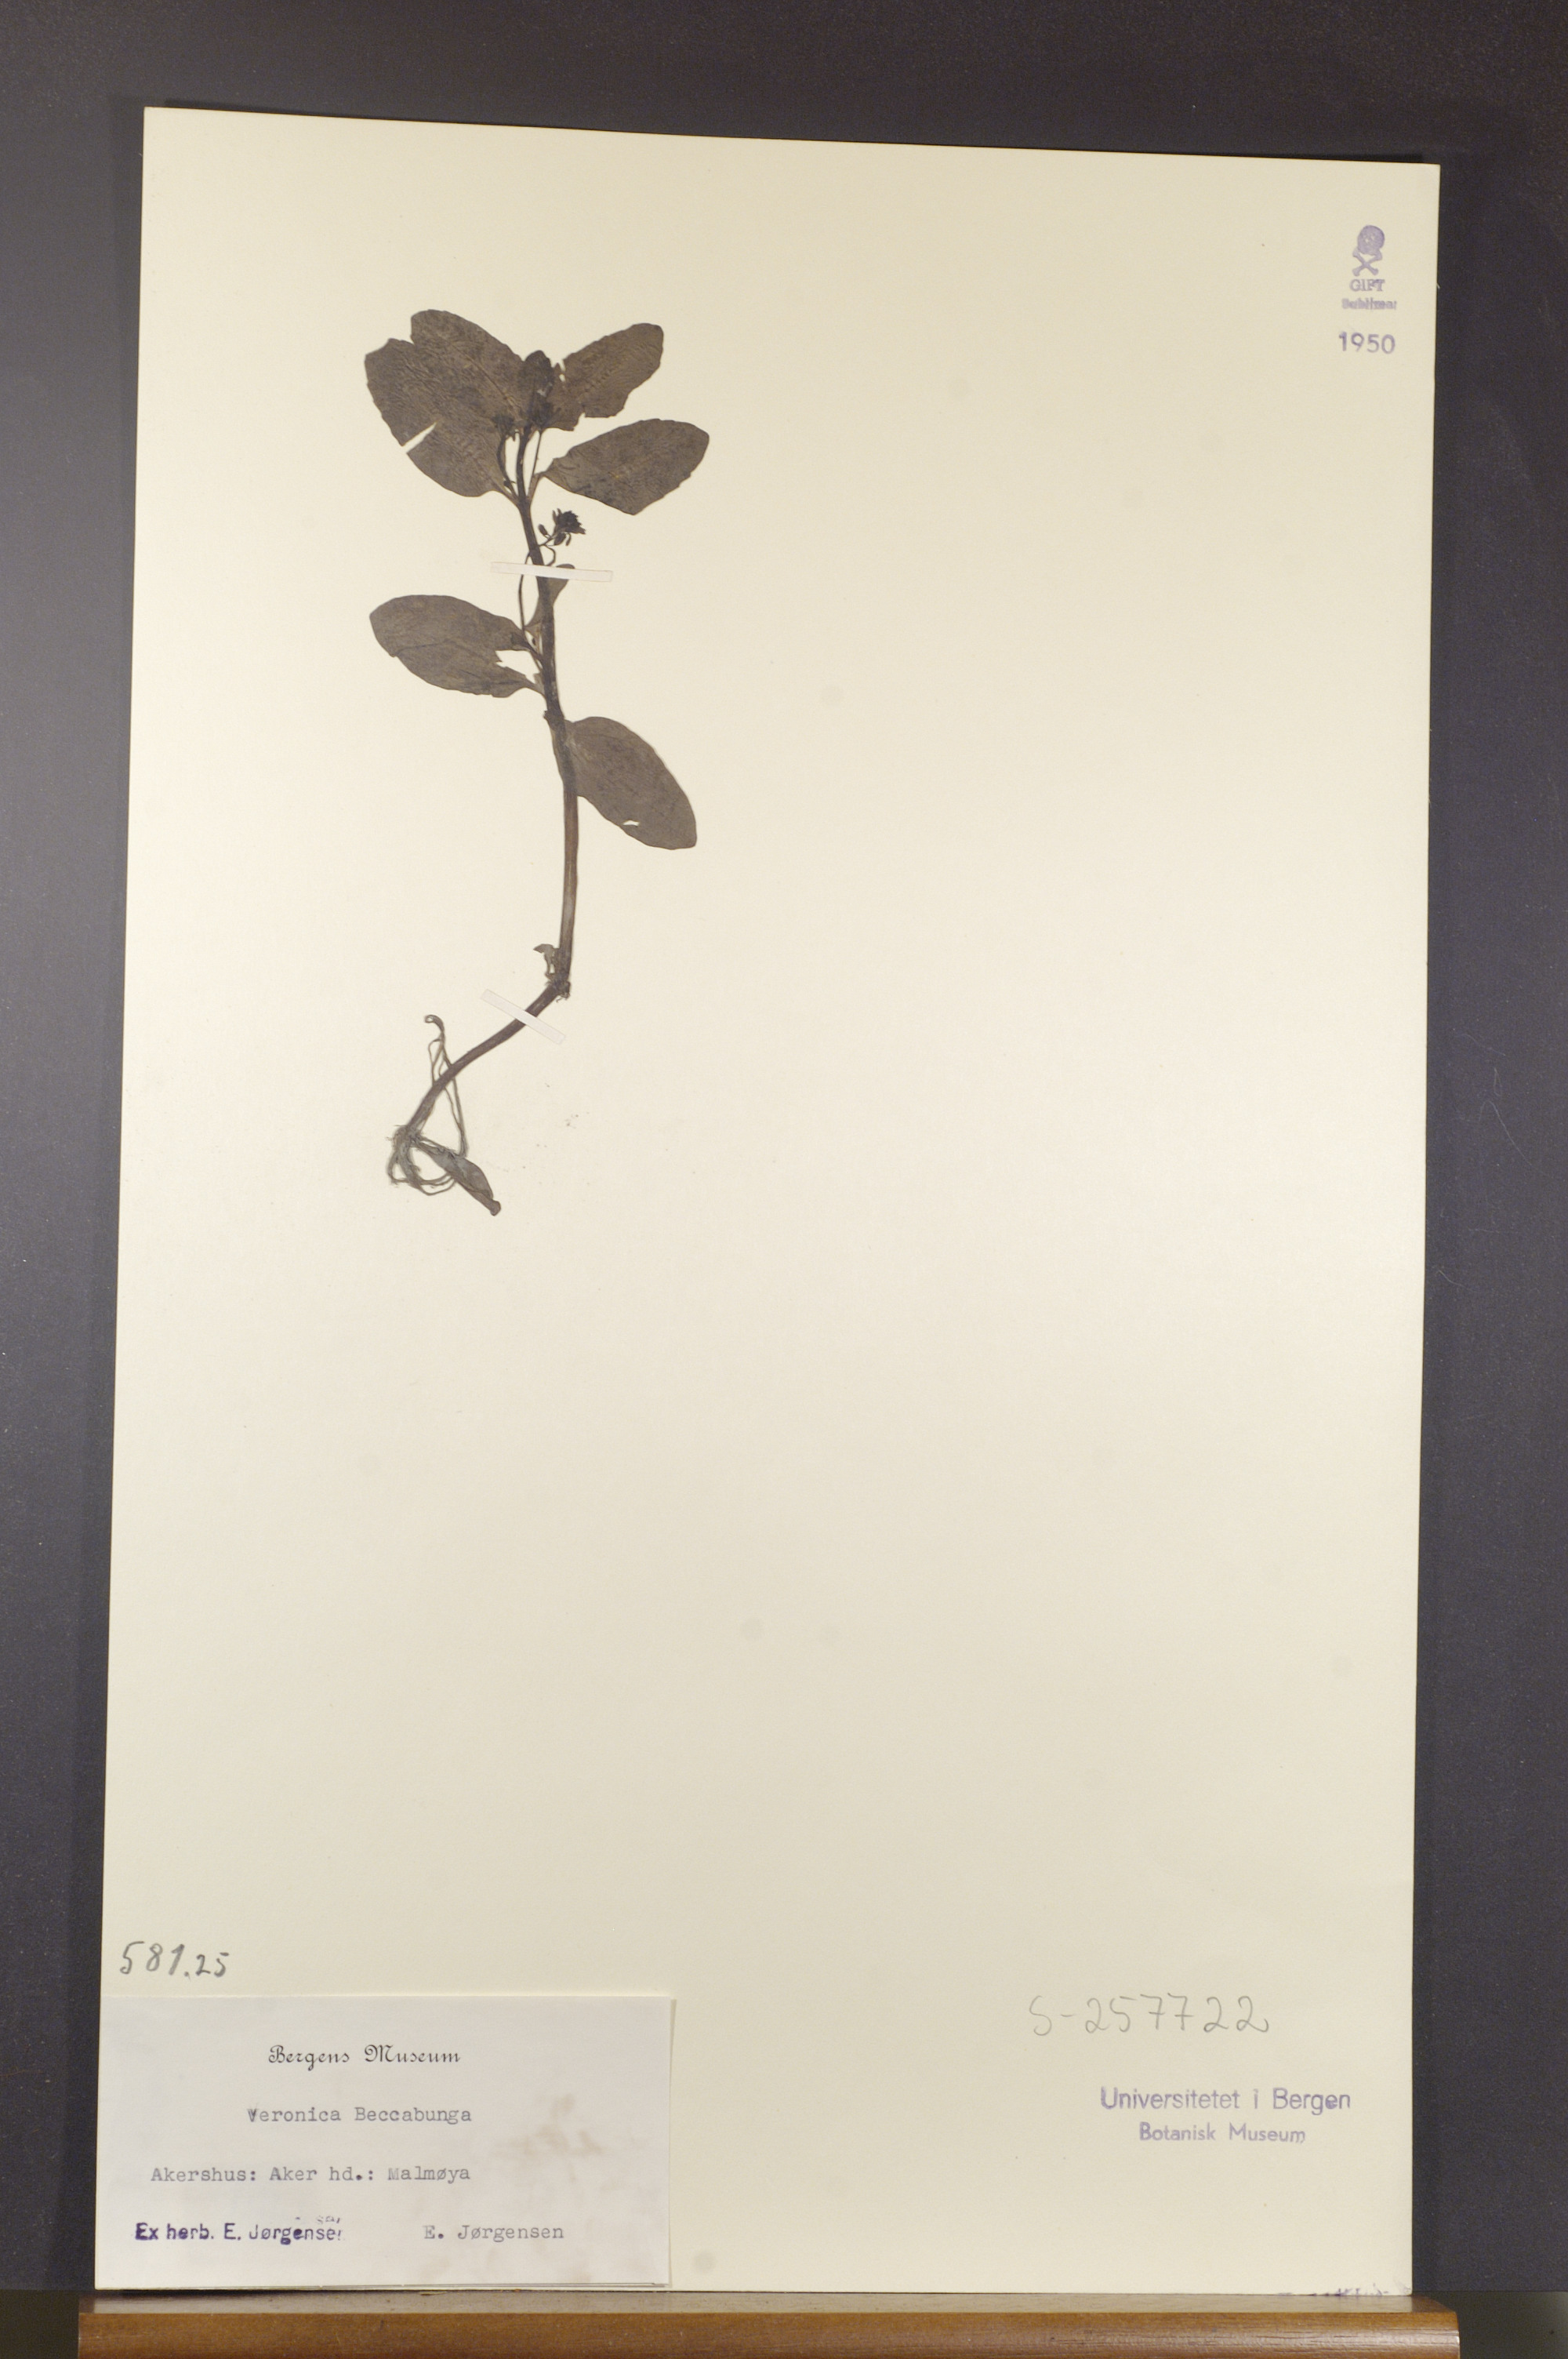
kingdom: Plantae
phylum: Tracheophyta
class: Magnoliopsida
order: Lamiales
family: Plantaginaceae
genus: Veronica
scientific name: Veronica beccabunga
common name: Brooklime
